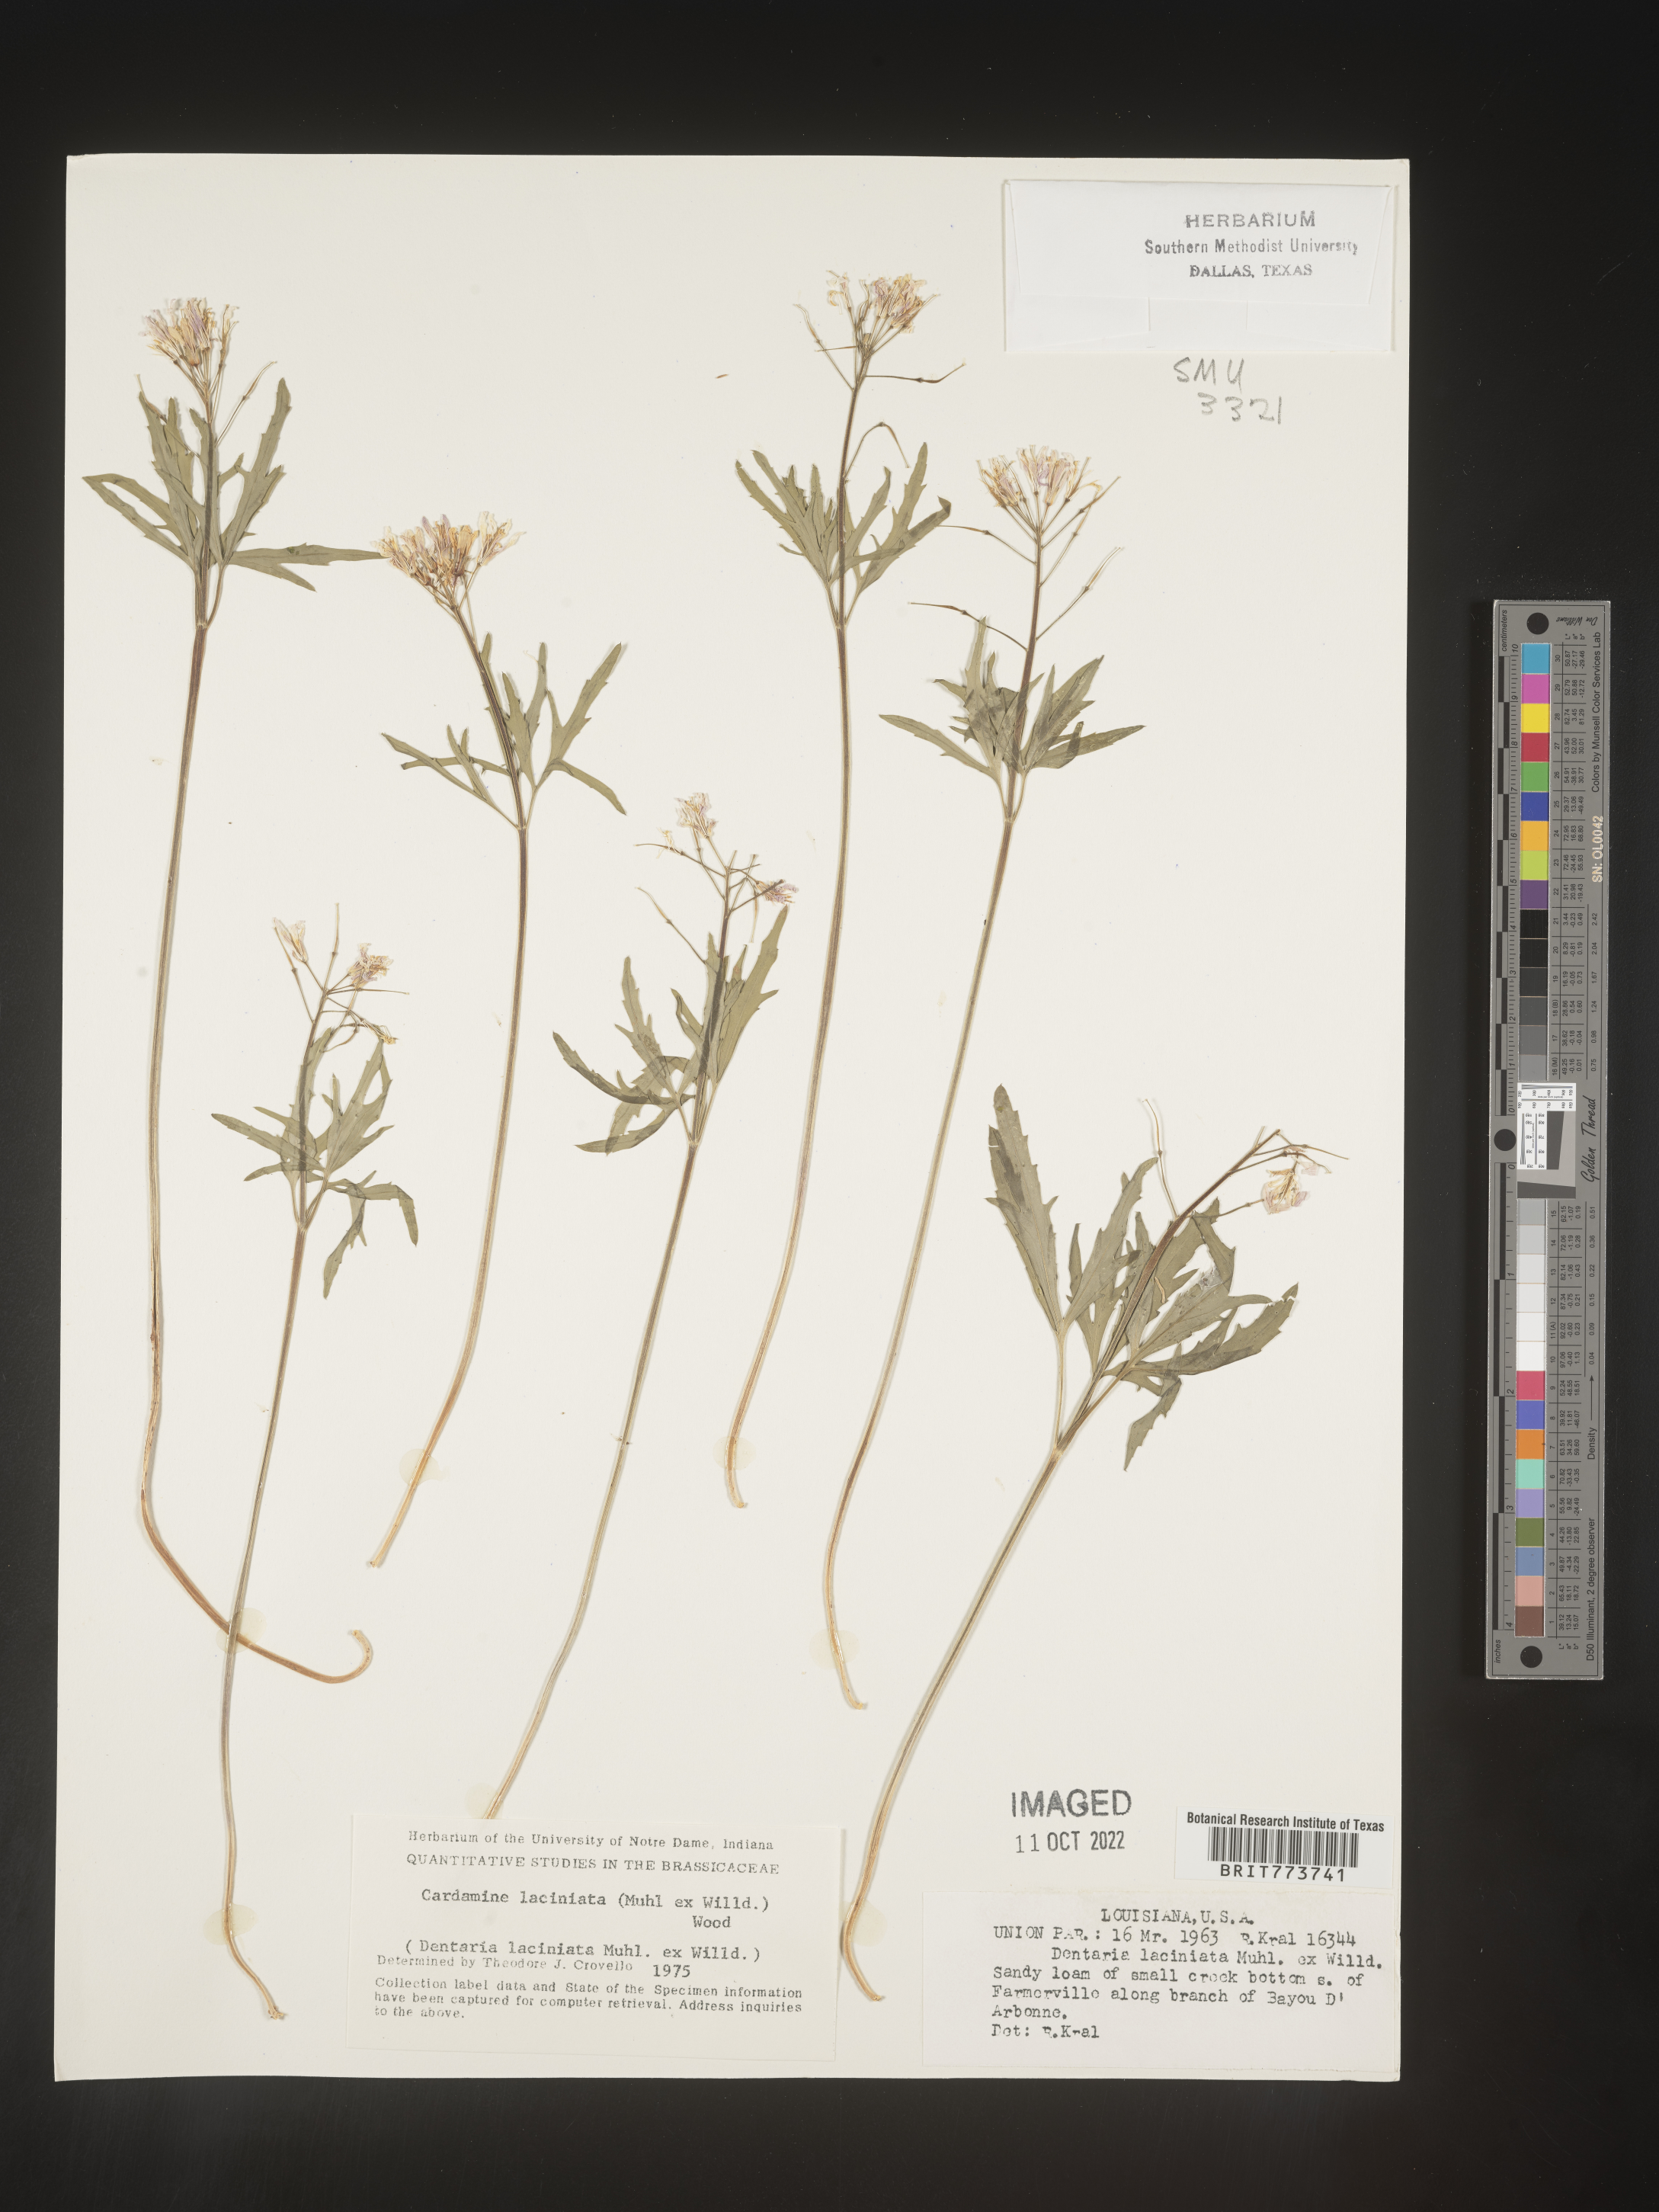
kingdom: Plantae
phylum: Tracheophyta
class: Magnoliopsida
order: Brassicales
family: Brassicaceae
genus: Rorippa
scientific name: Rorippa laciniata
